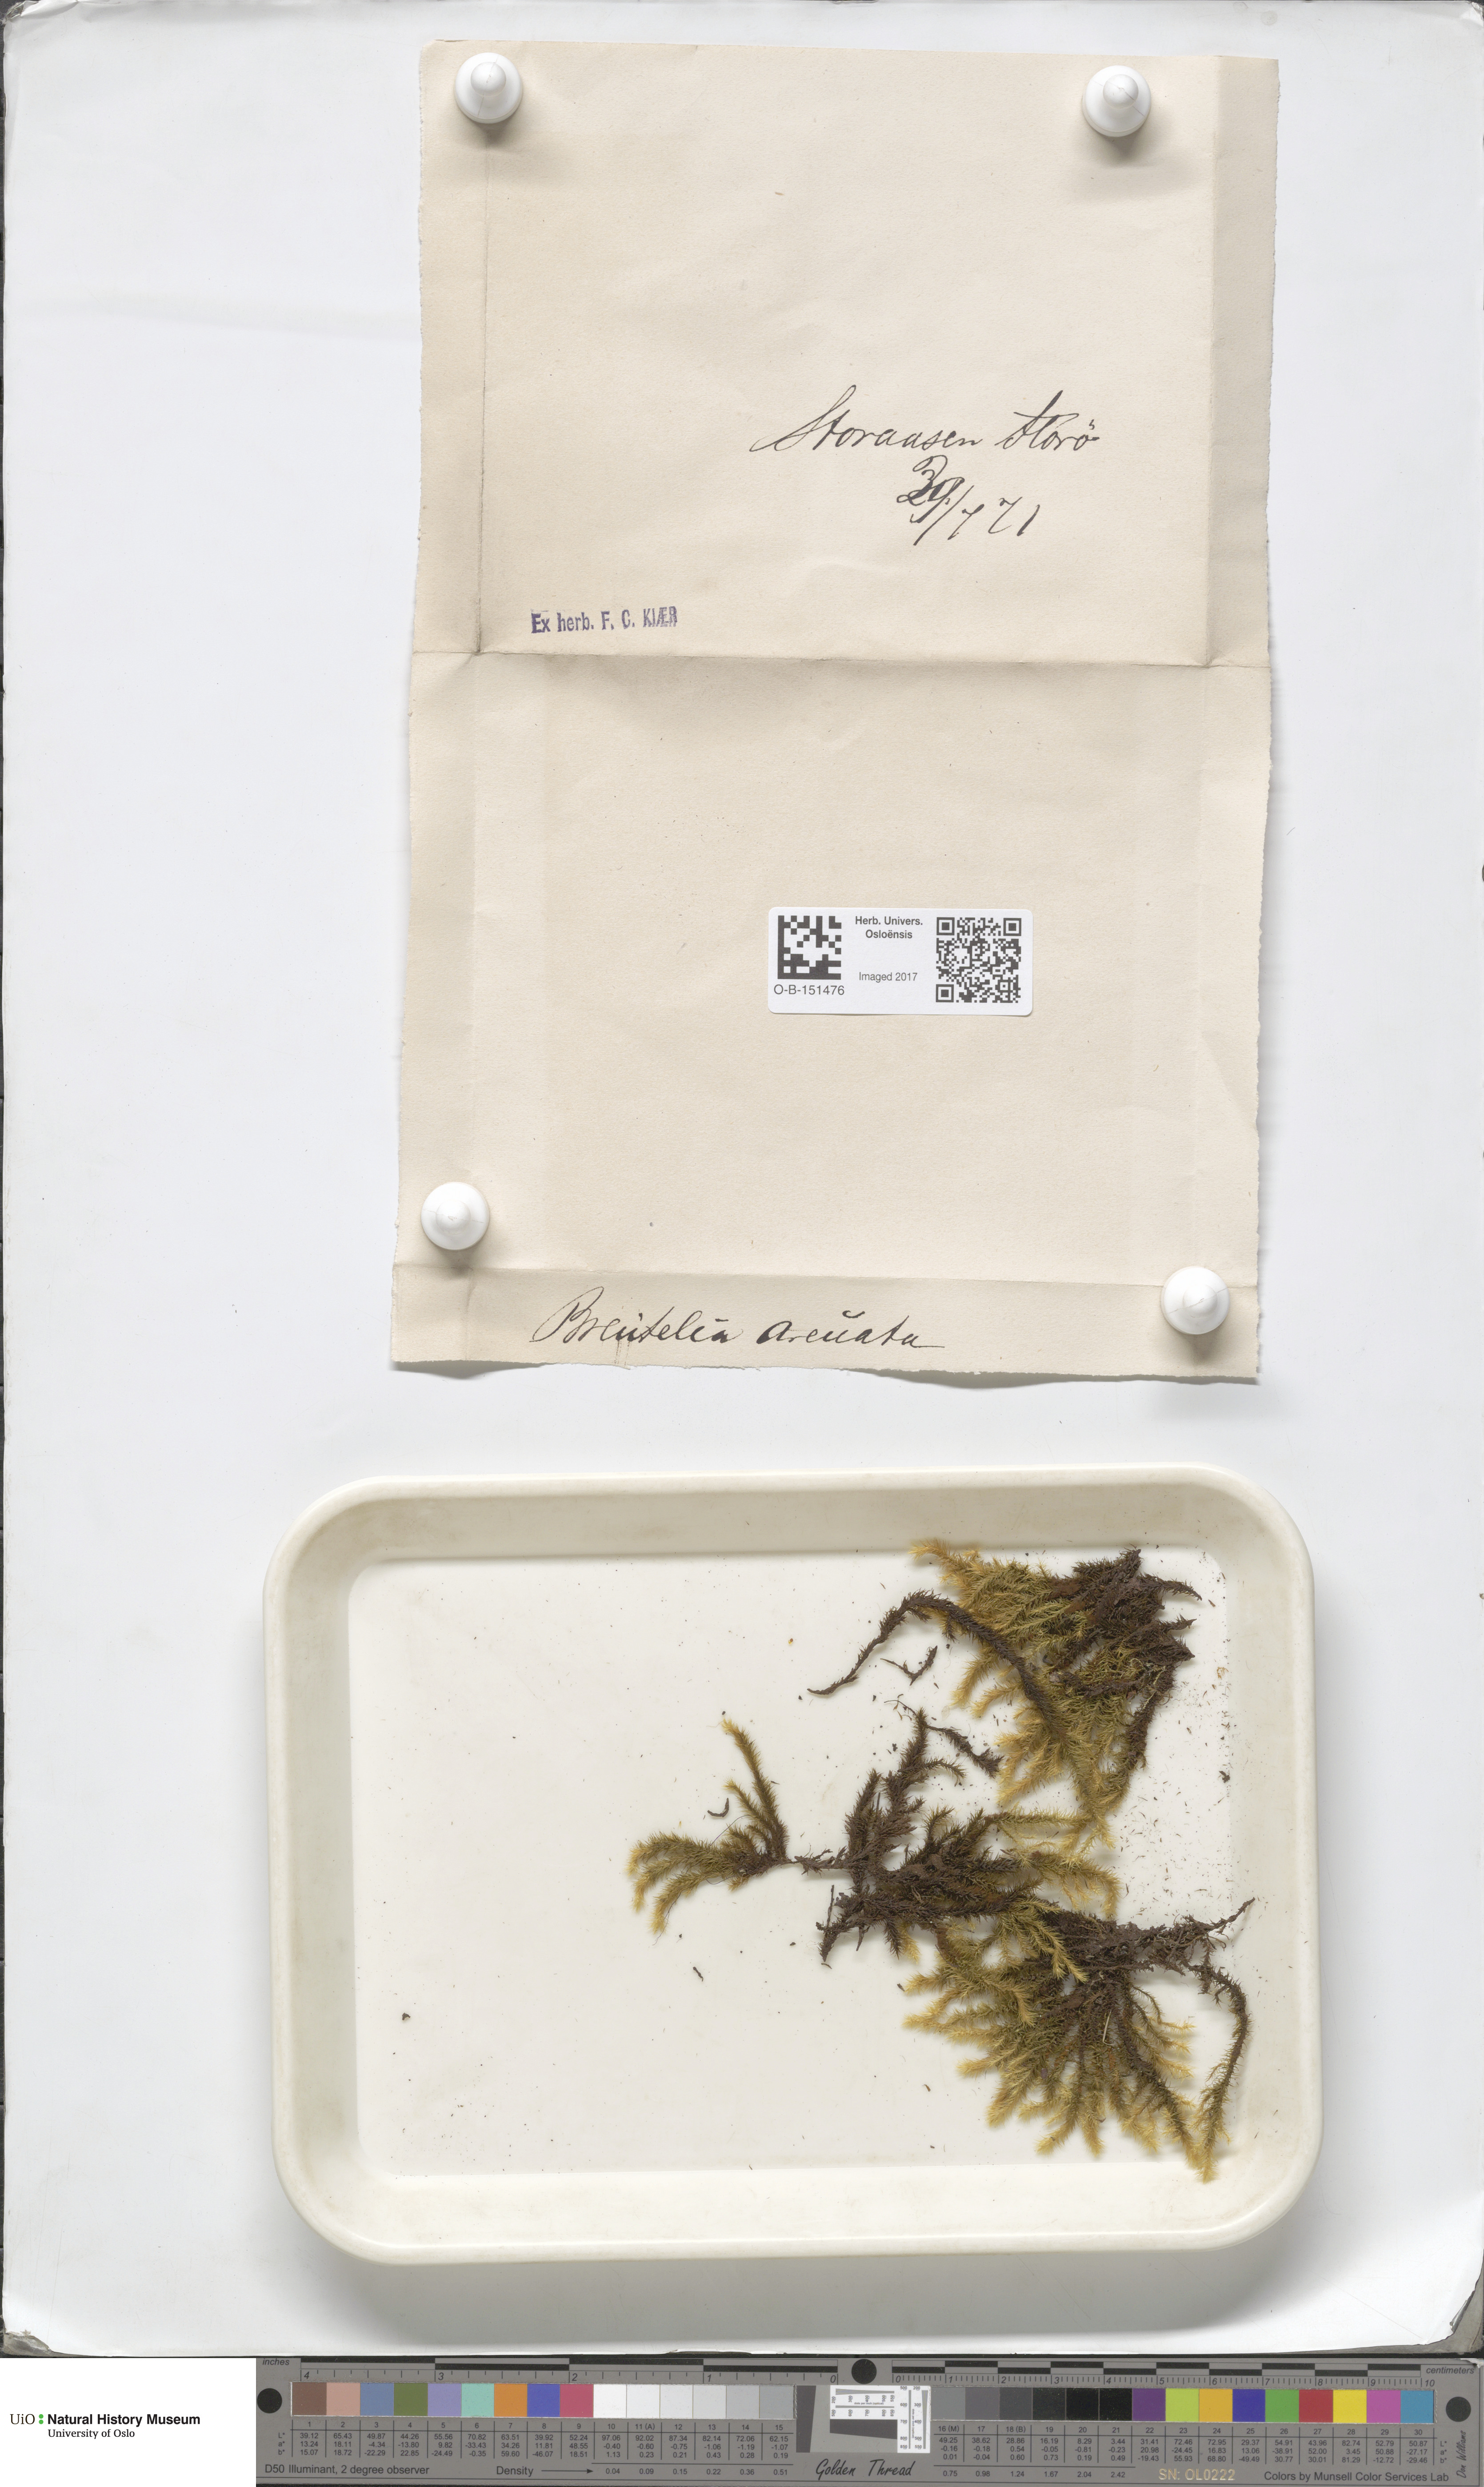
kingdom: Plantae
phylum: Bryophyta
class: Bryopsida
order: Bartramiales
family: Bartramiaceae
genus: Breutelia
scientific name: Breutelia chrysocoma
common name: Bottle-brush moss
